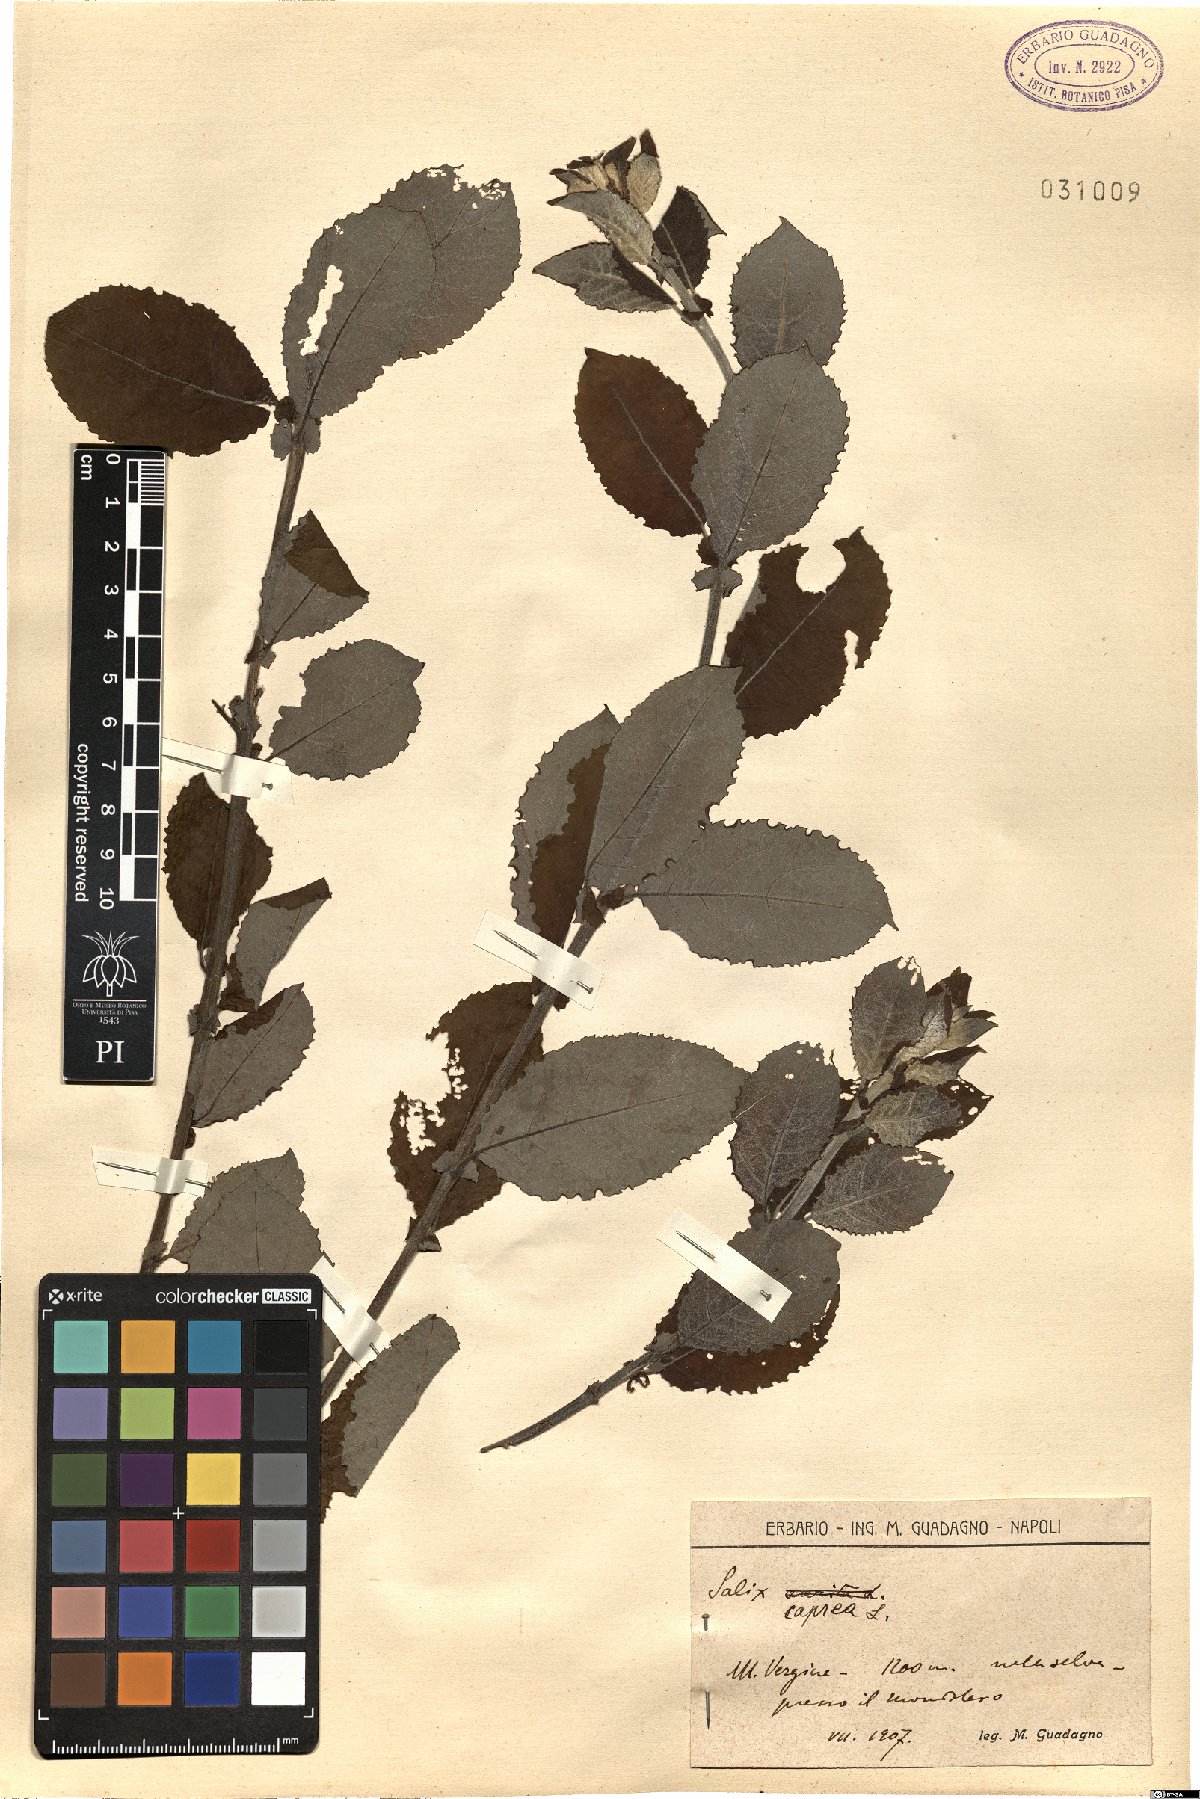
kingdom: Plantae
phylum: Tracheophyta
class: Magnoliopsida
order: Malpighiales
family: Salicaceae
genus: Salix
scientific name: Salix caprea
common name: Goat willow
